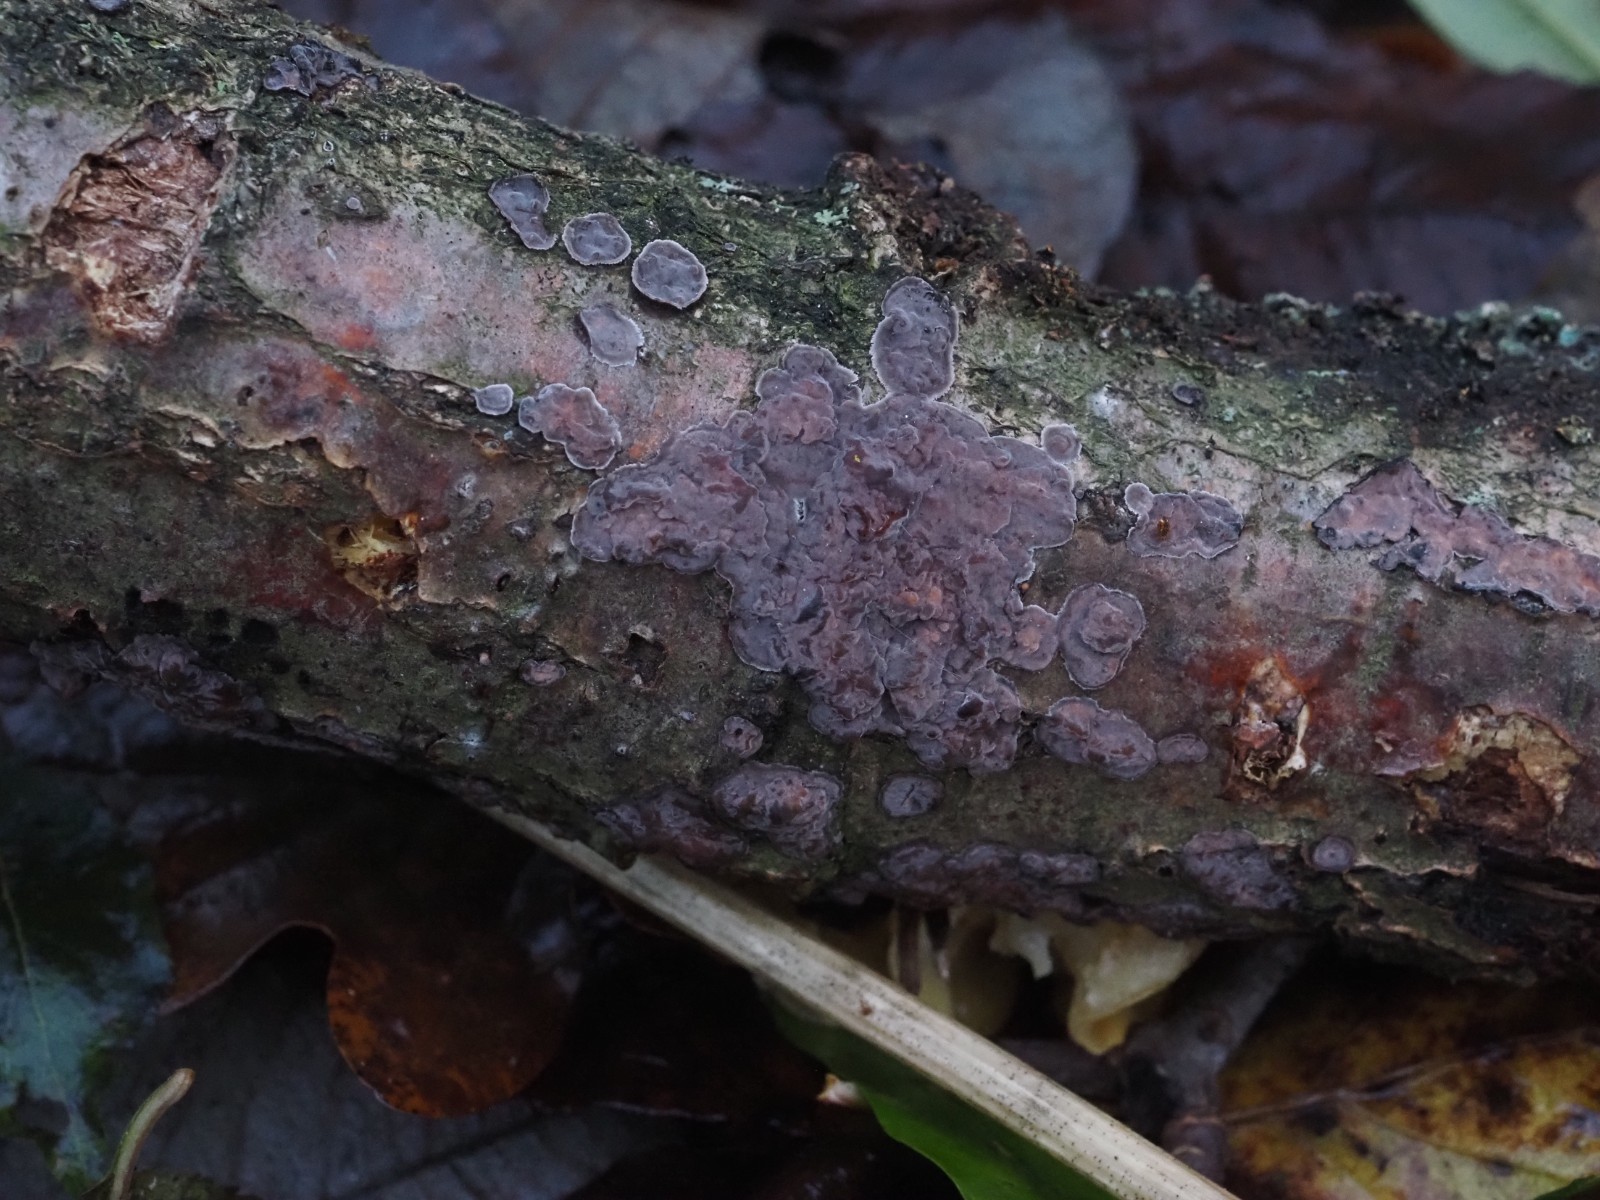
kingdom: Fungi
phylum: Basidiomycota
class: Agaricomycetes
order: Russulales
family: Peniophoraceae
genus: Peniophora
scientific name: Peniophora quercina
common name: ege-voksskind
